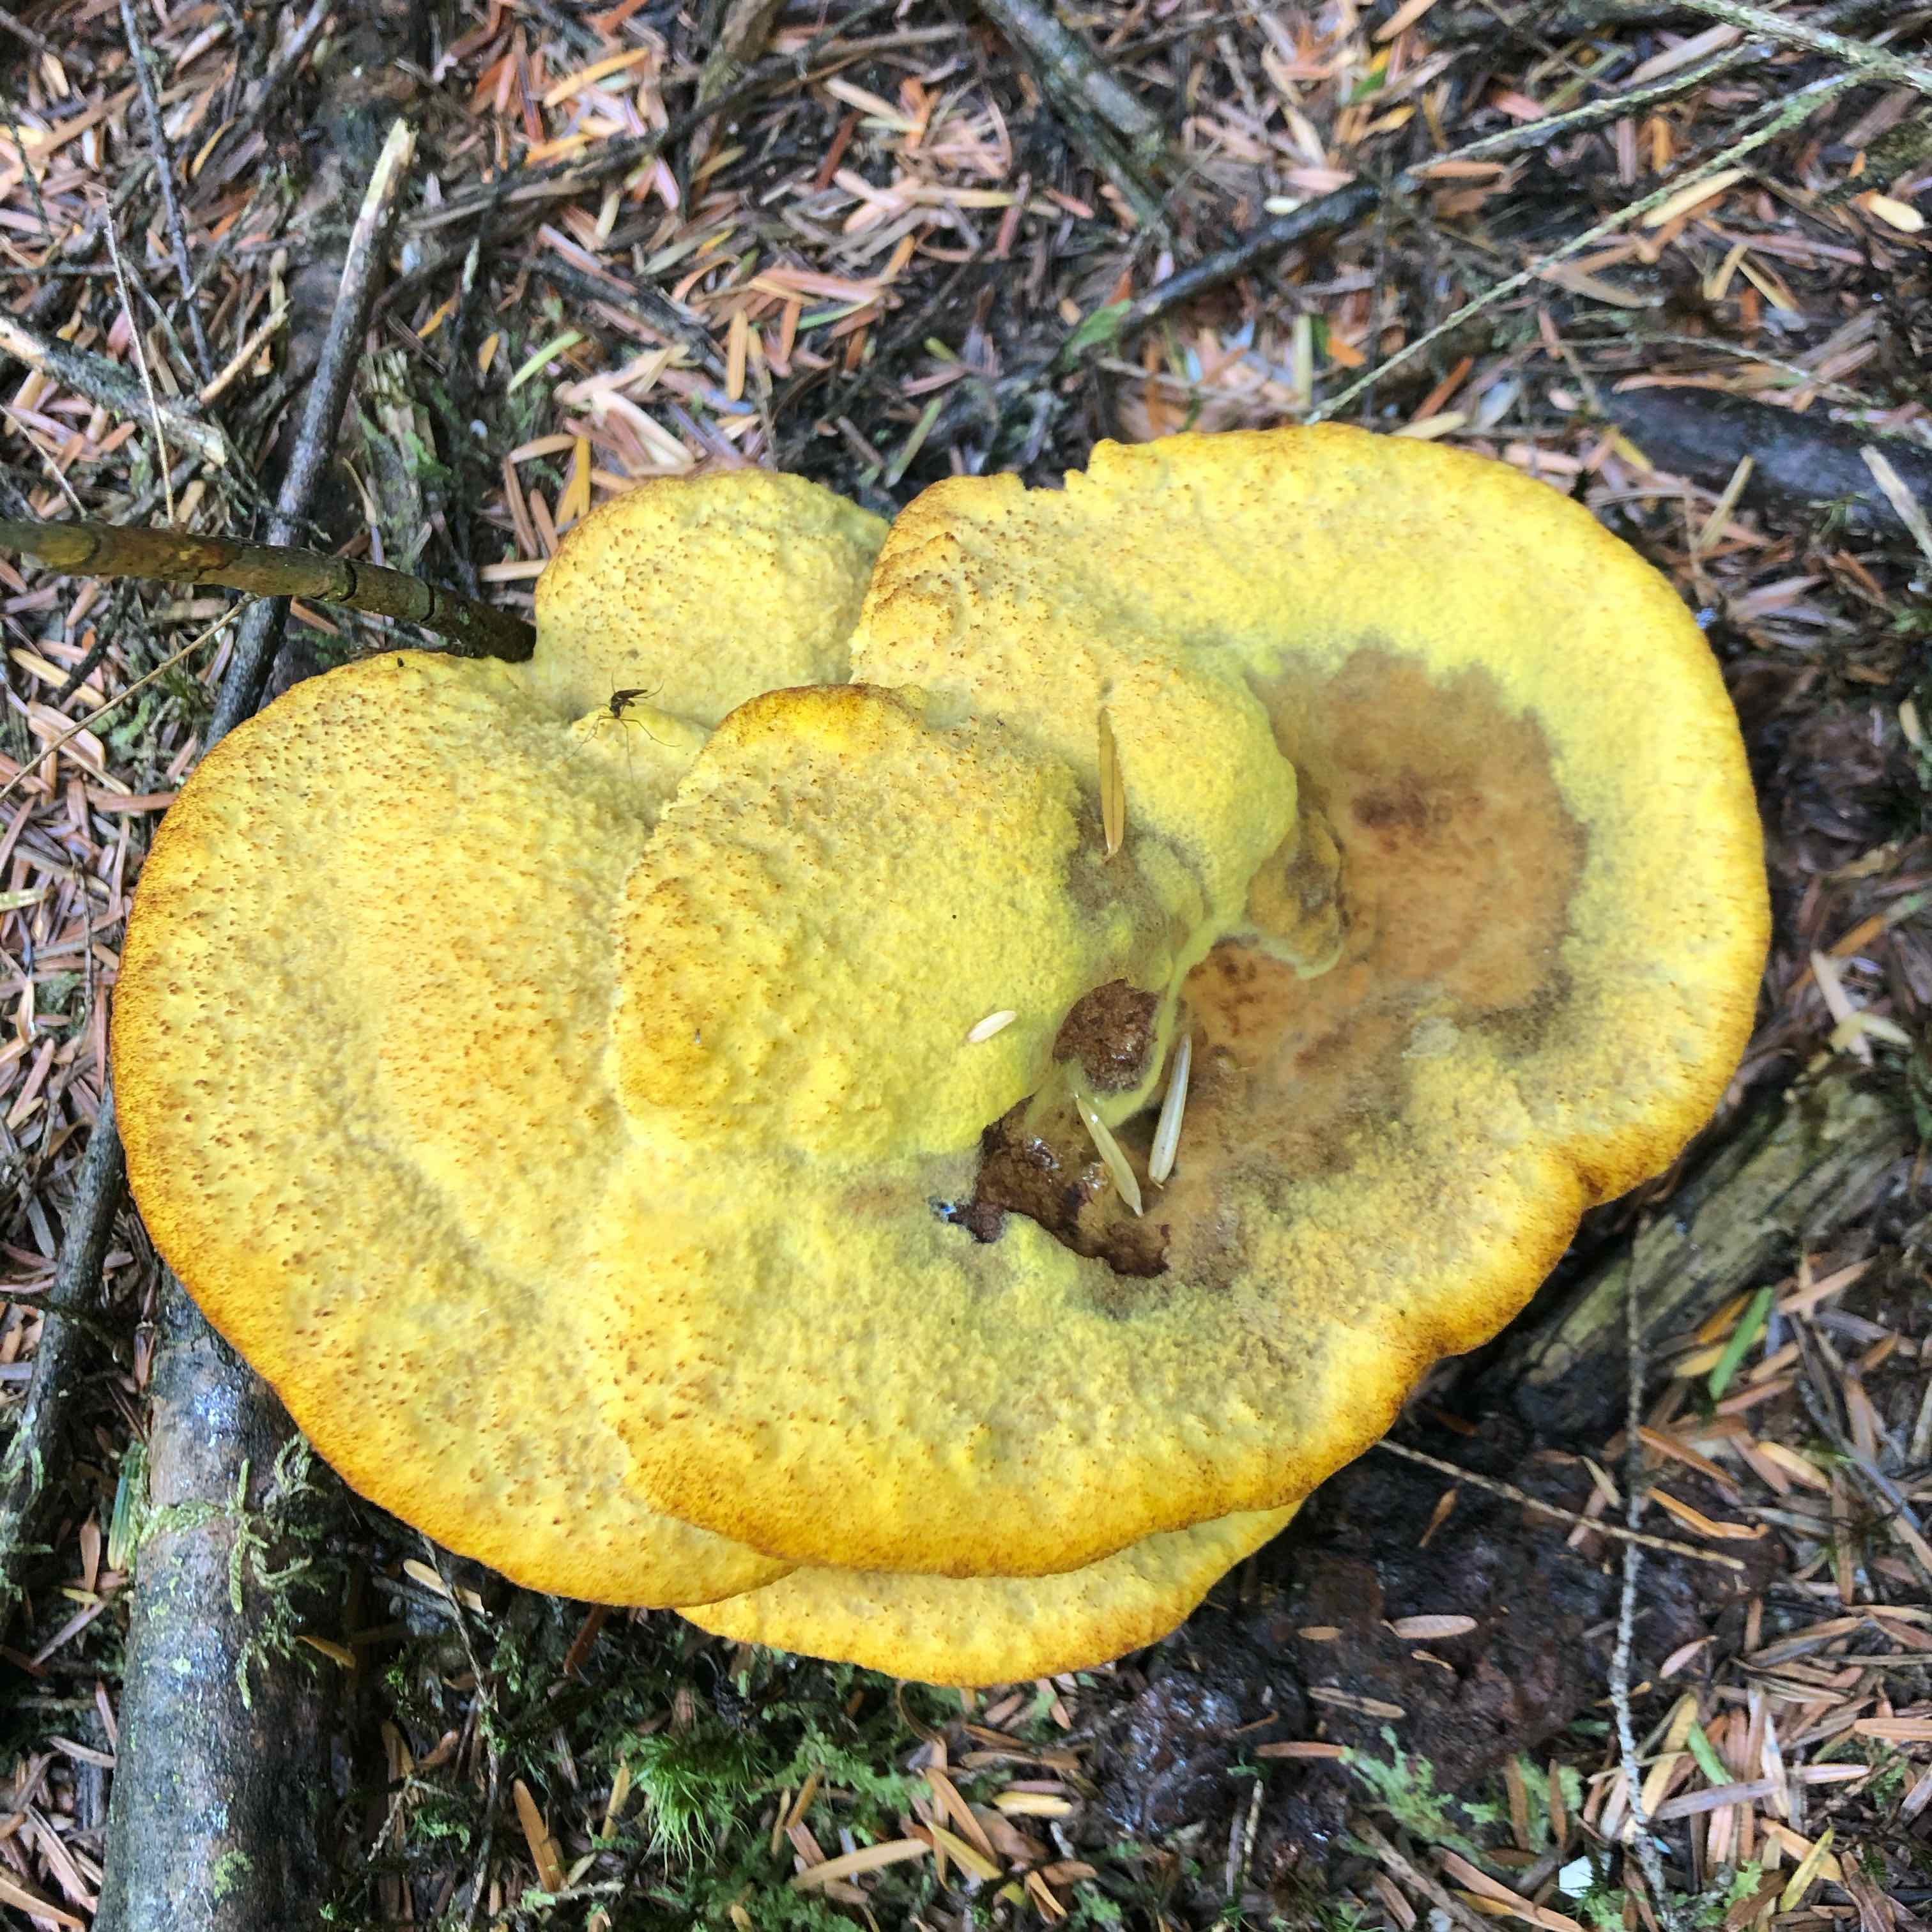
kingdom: Fungi
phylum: Basidiomycota
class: Agaricomycetes
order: Polyporales
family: Laetiporaceae
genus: Phaeolus
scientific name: Phaeolus schweinitzii
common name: brunporesvamp
